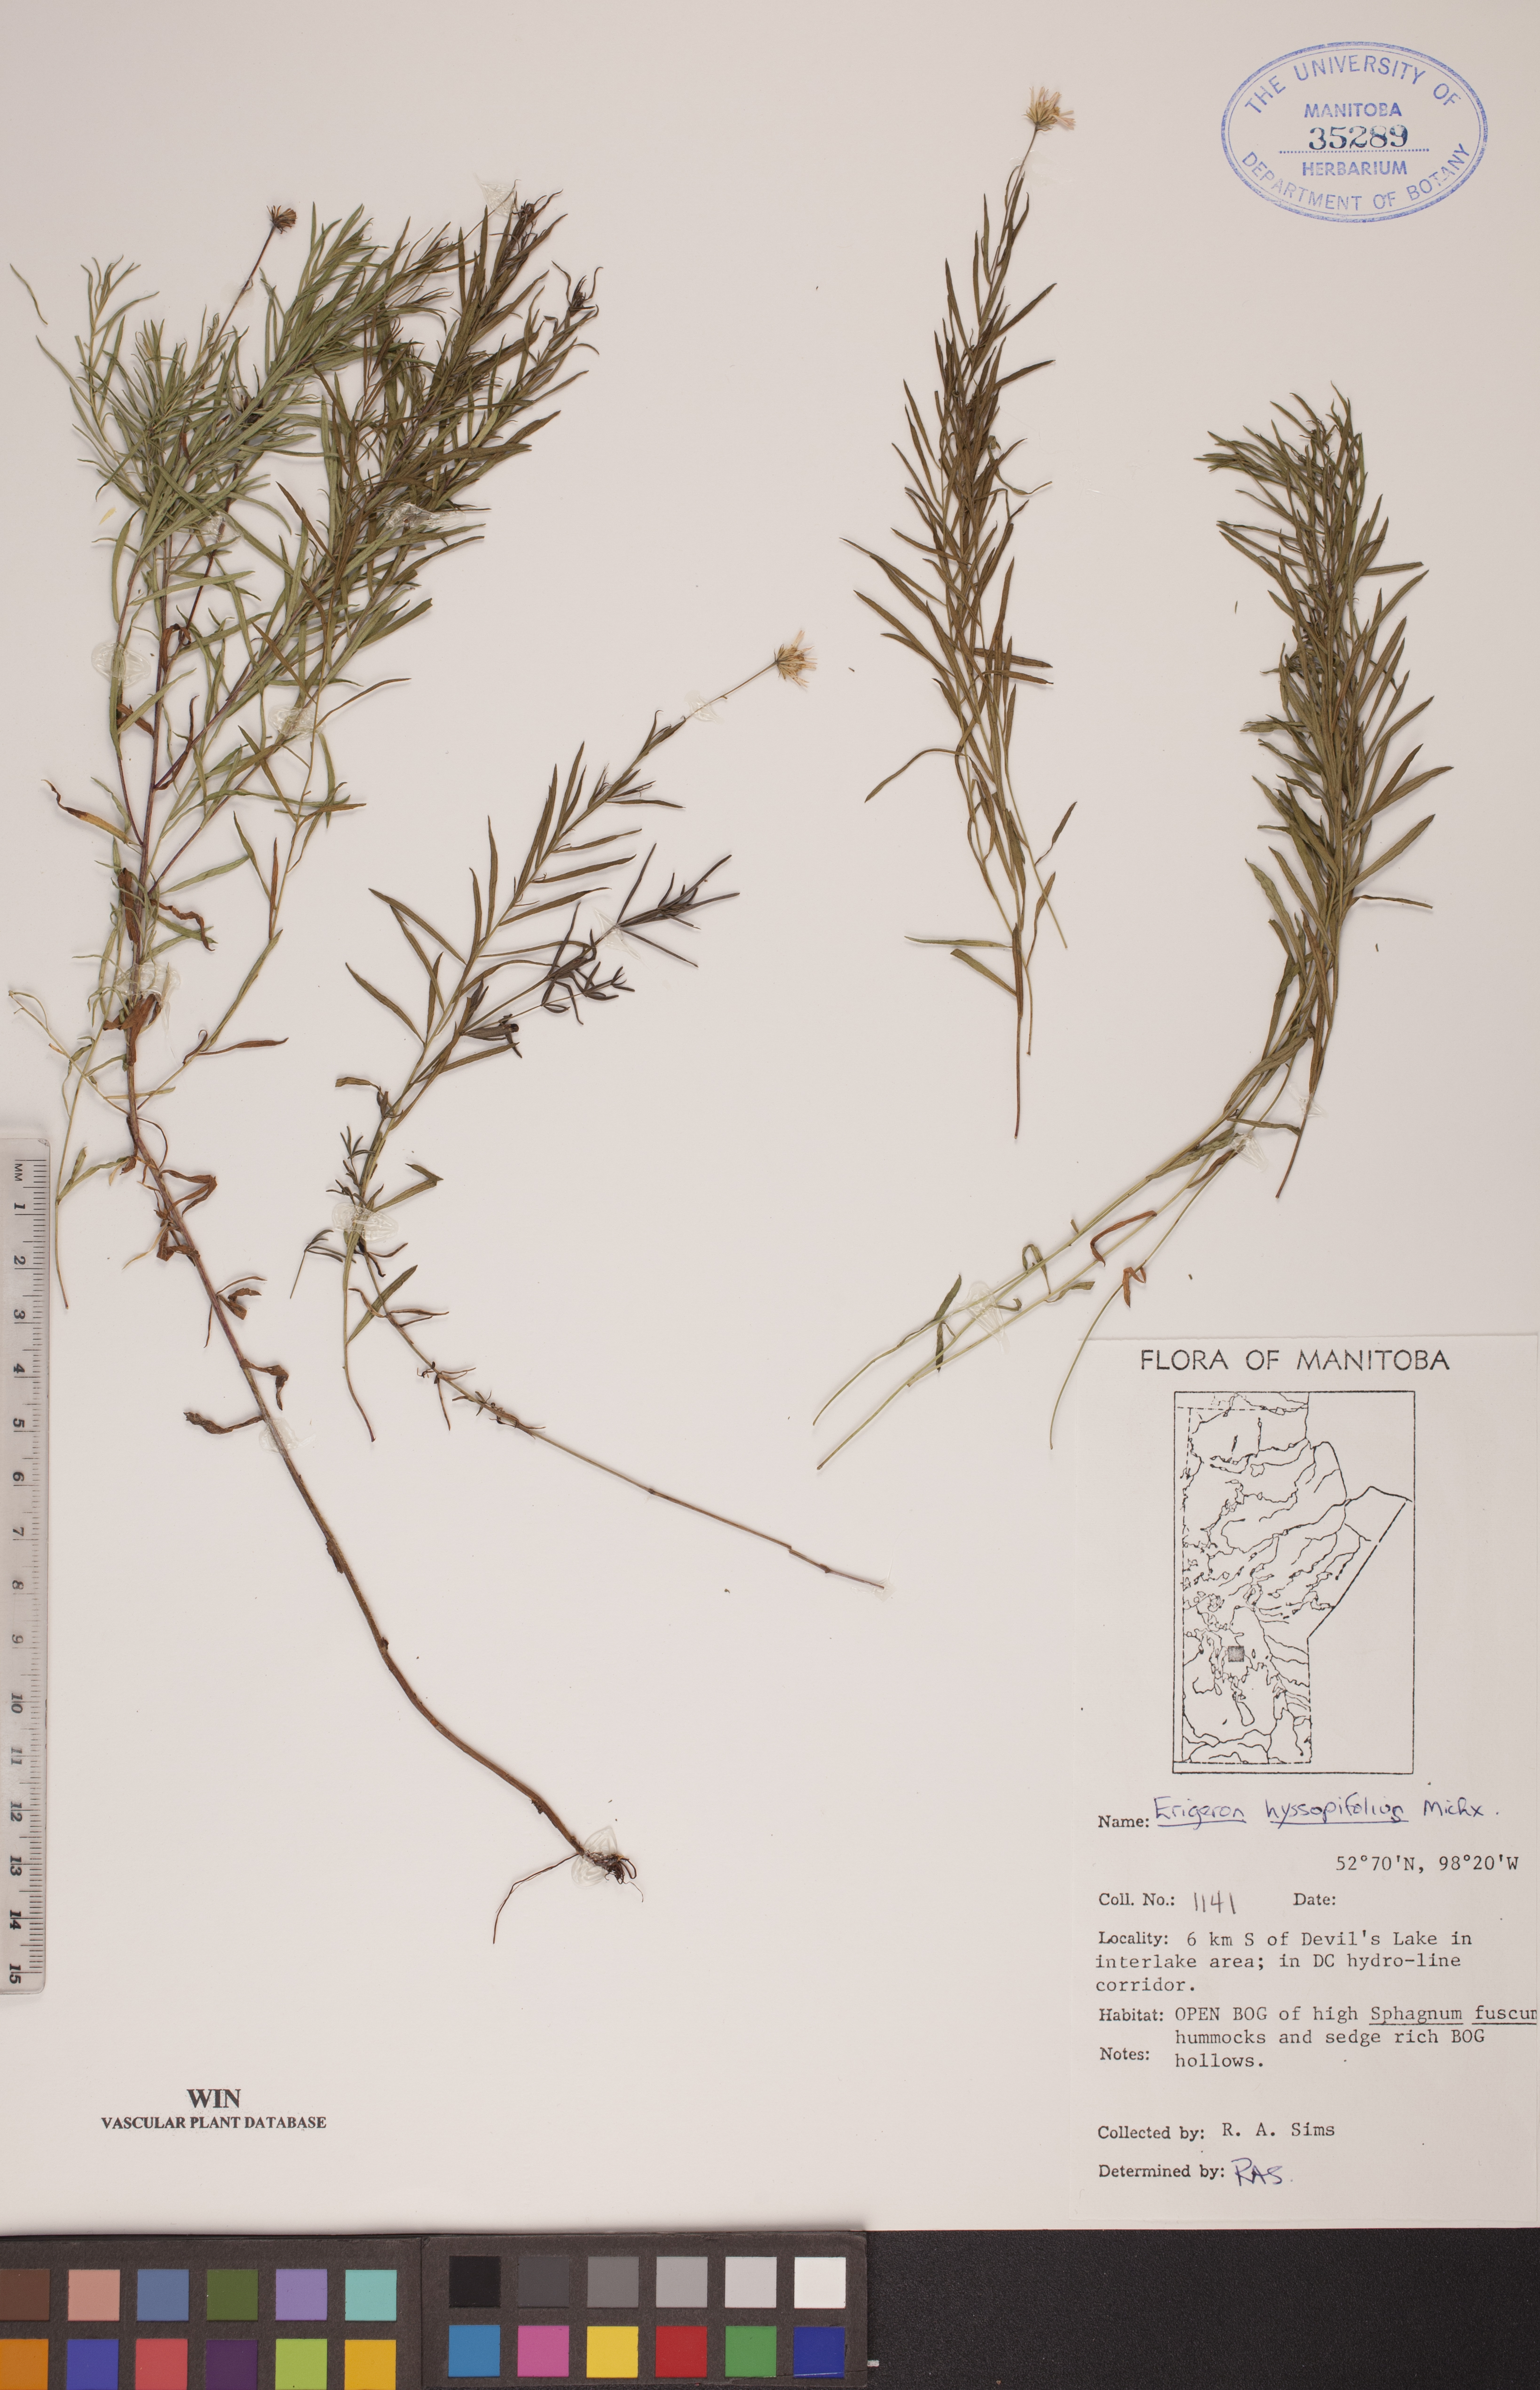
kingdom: Plantae
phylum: Tracheophyta
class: Magnoliopsida
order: Asterales
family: Asteraceae
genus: Erigeron
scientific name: Erigeron hyssopifolius
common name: Daisy fleabane
